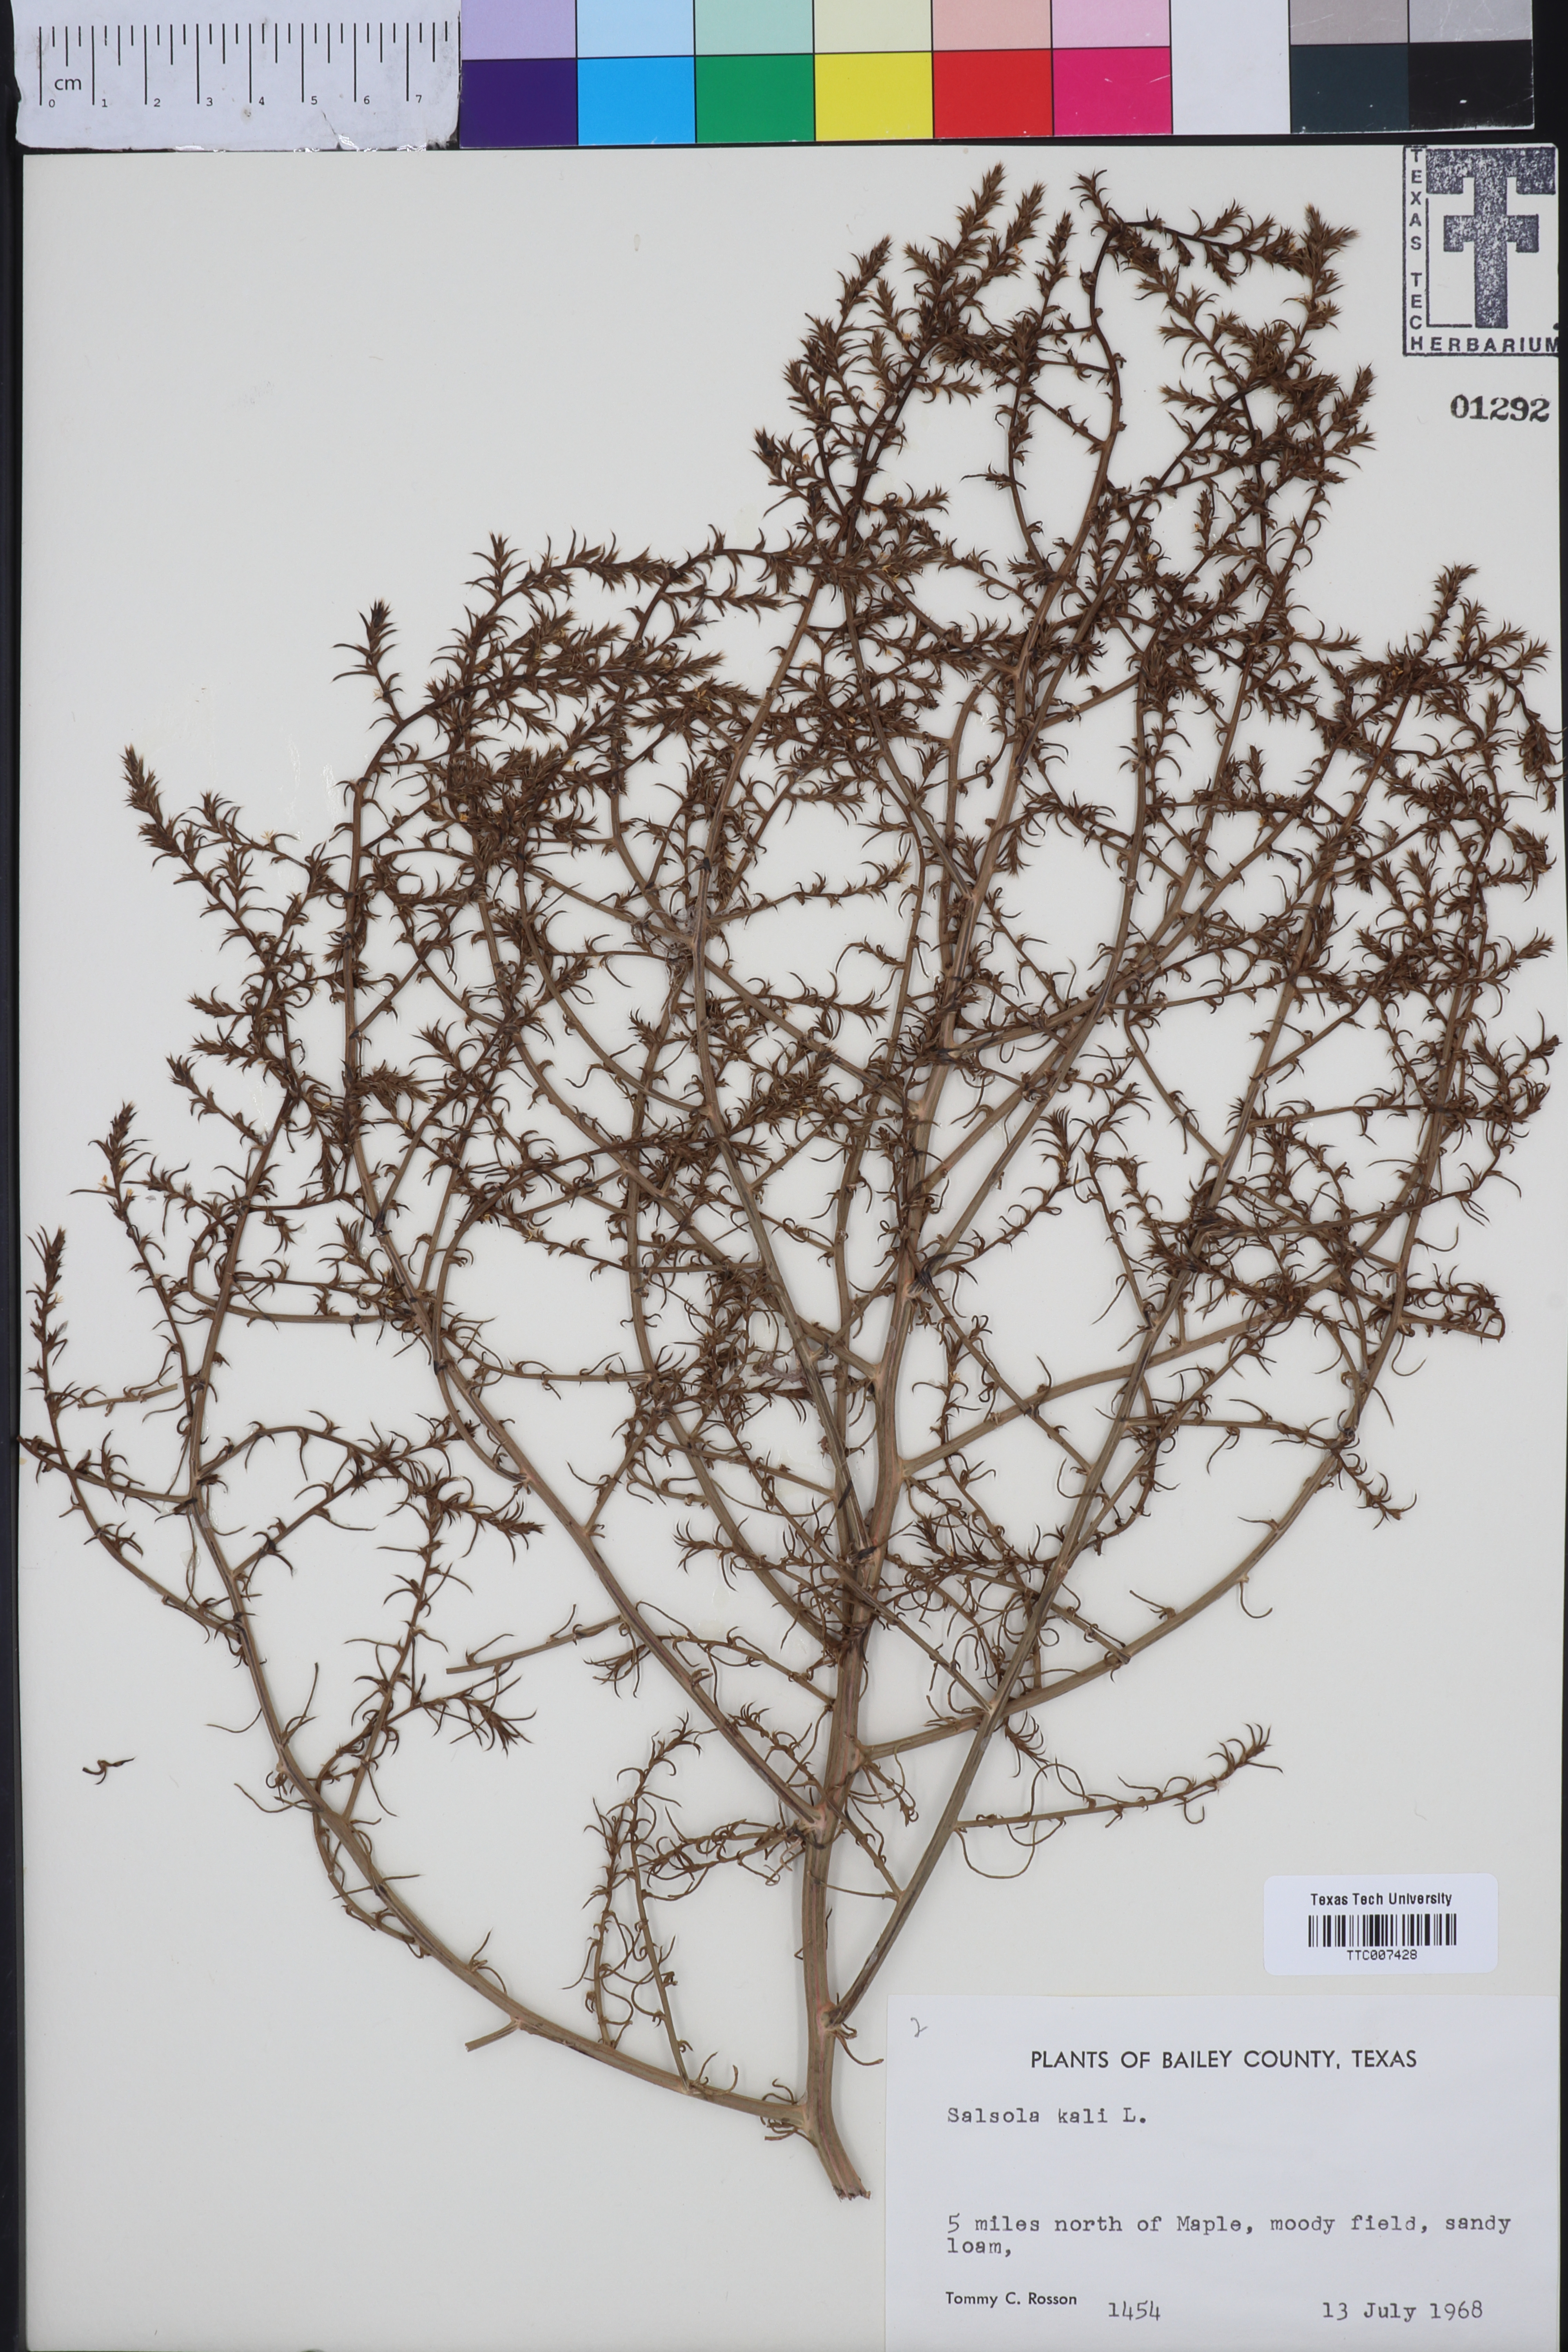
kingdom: Plantae
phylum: Tracheophyta
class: Magnoliopsida
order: Caryophyllales
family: Amaranthaceae
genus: Salsola
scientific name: Salsola kali
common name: Saltwort
